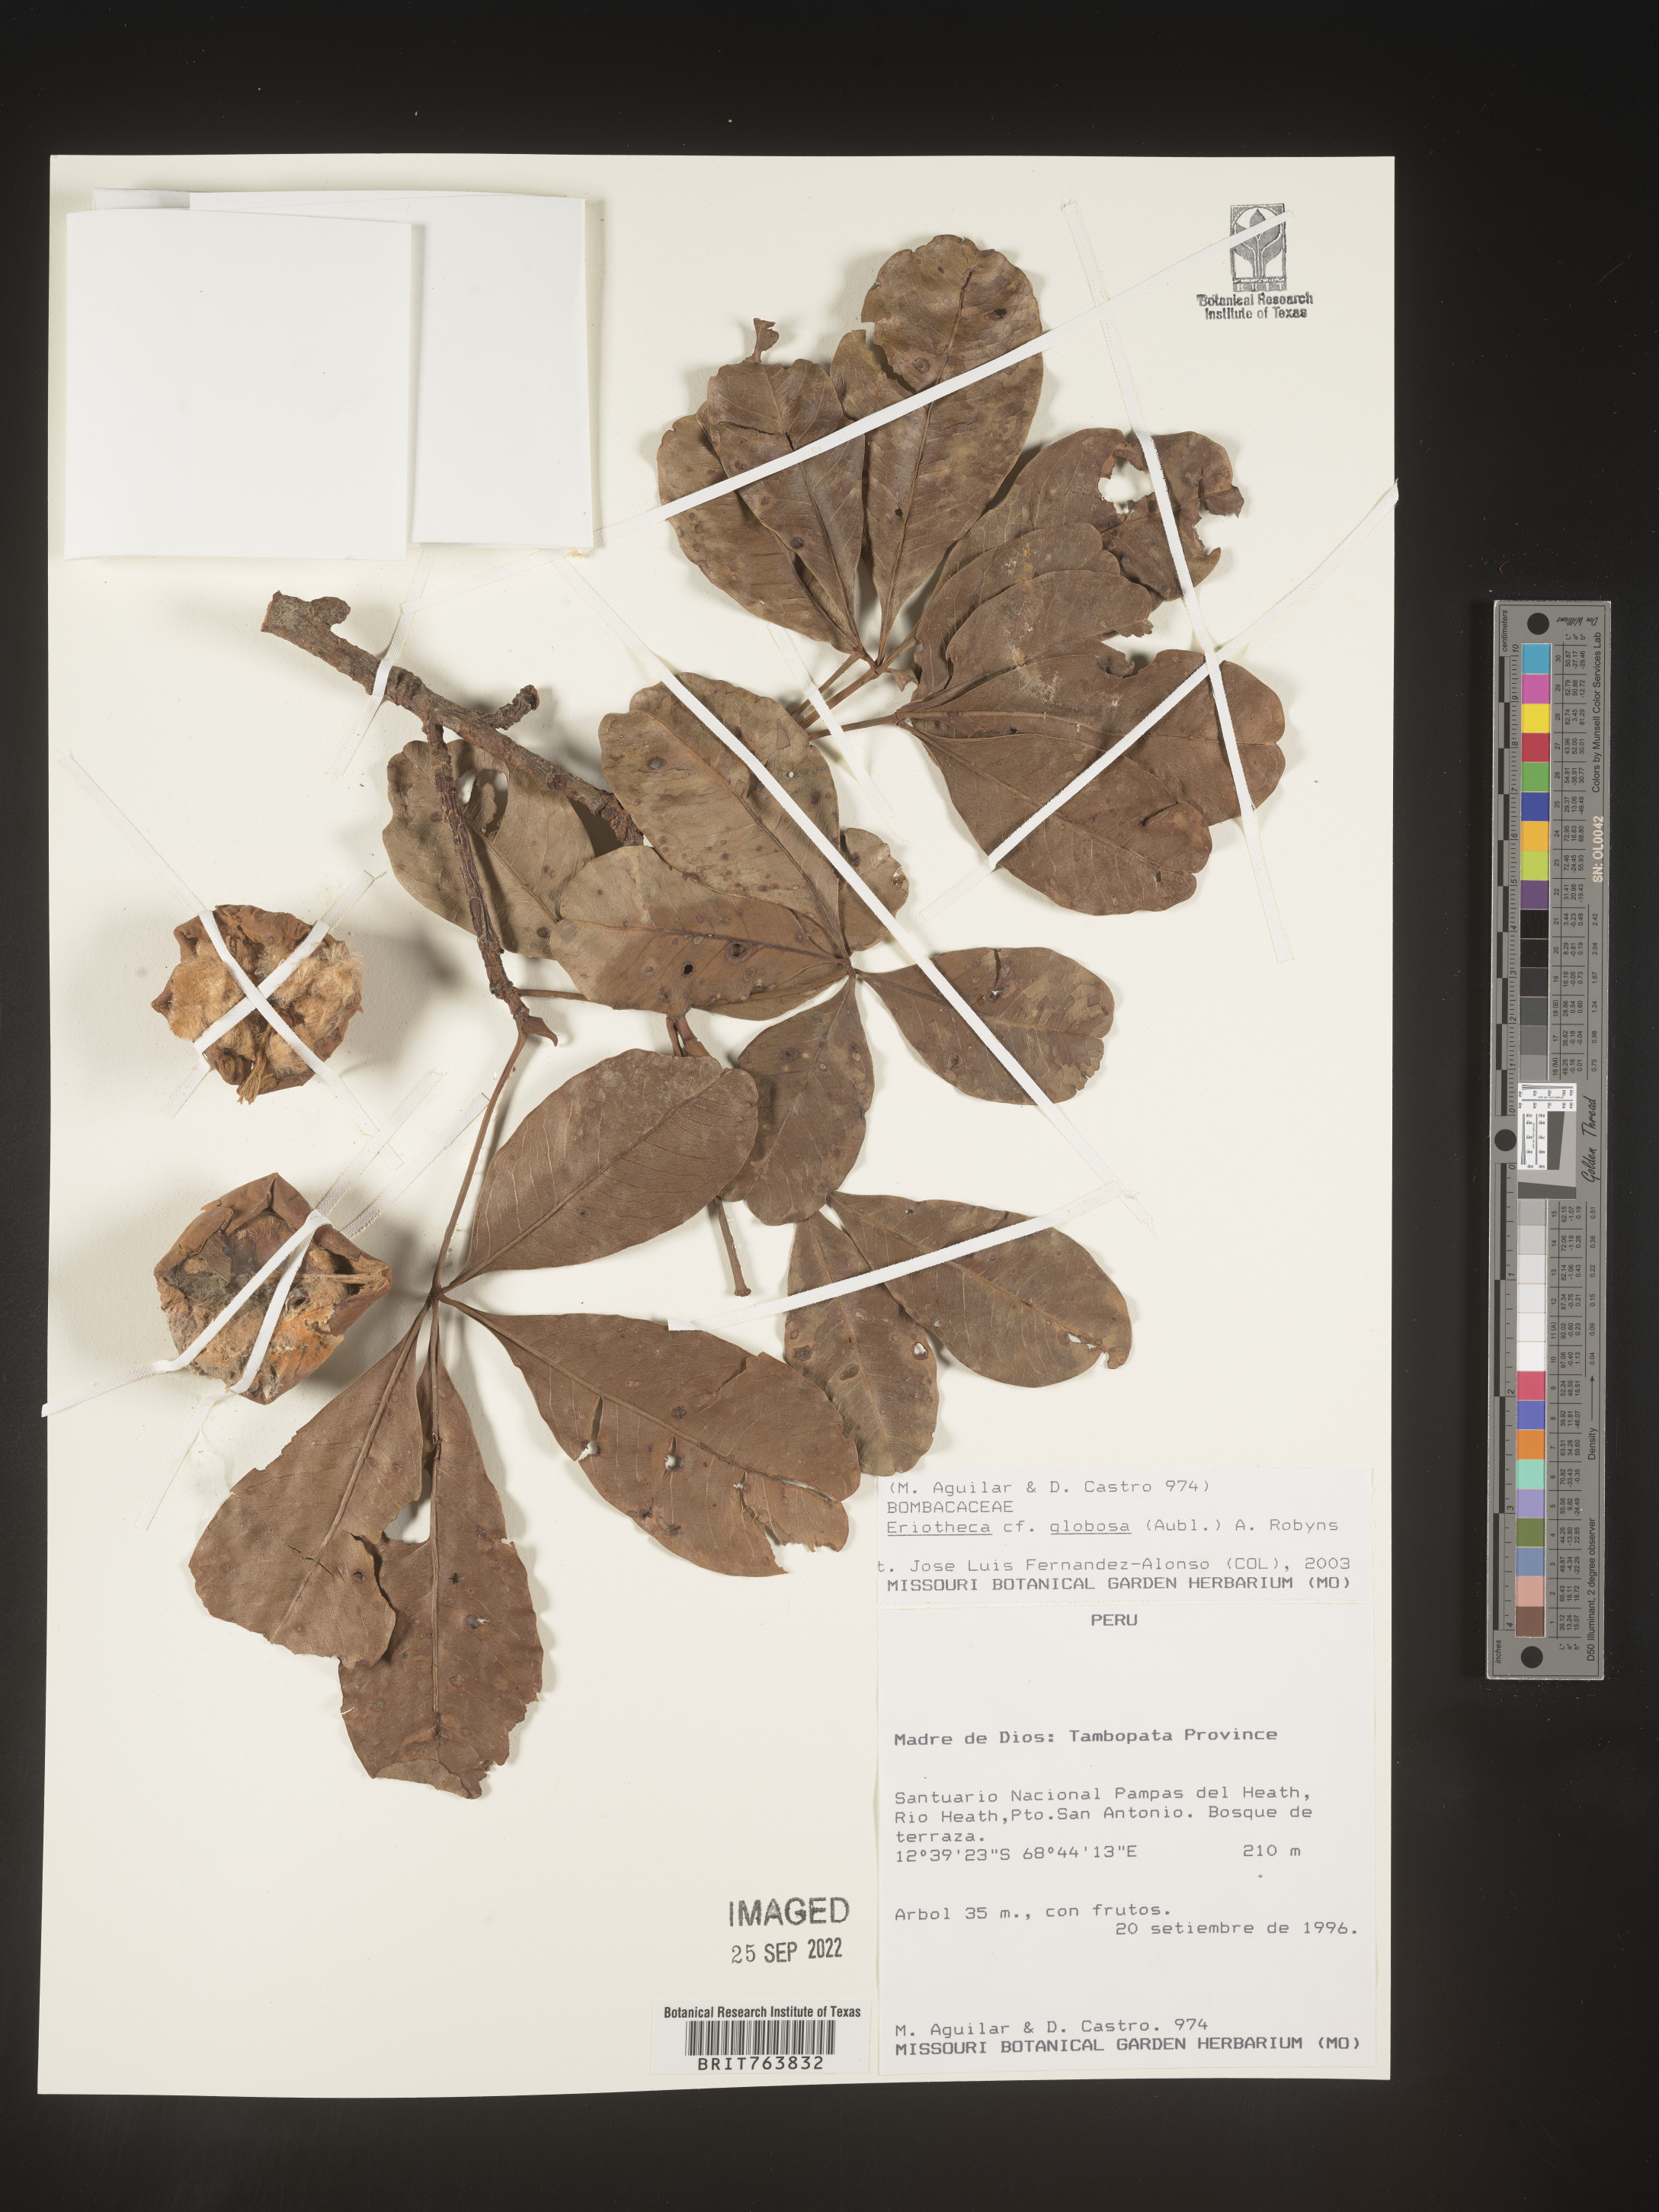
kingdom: Plantae
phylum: Tracheophyta
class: Magnoliopsida
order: Malvales
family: Malvaceae
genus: Eriotheca
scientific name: Eriotheca
